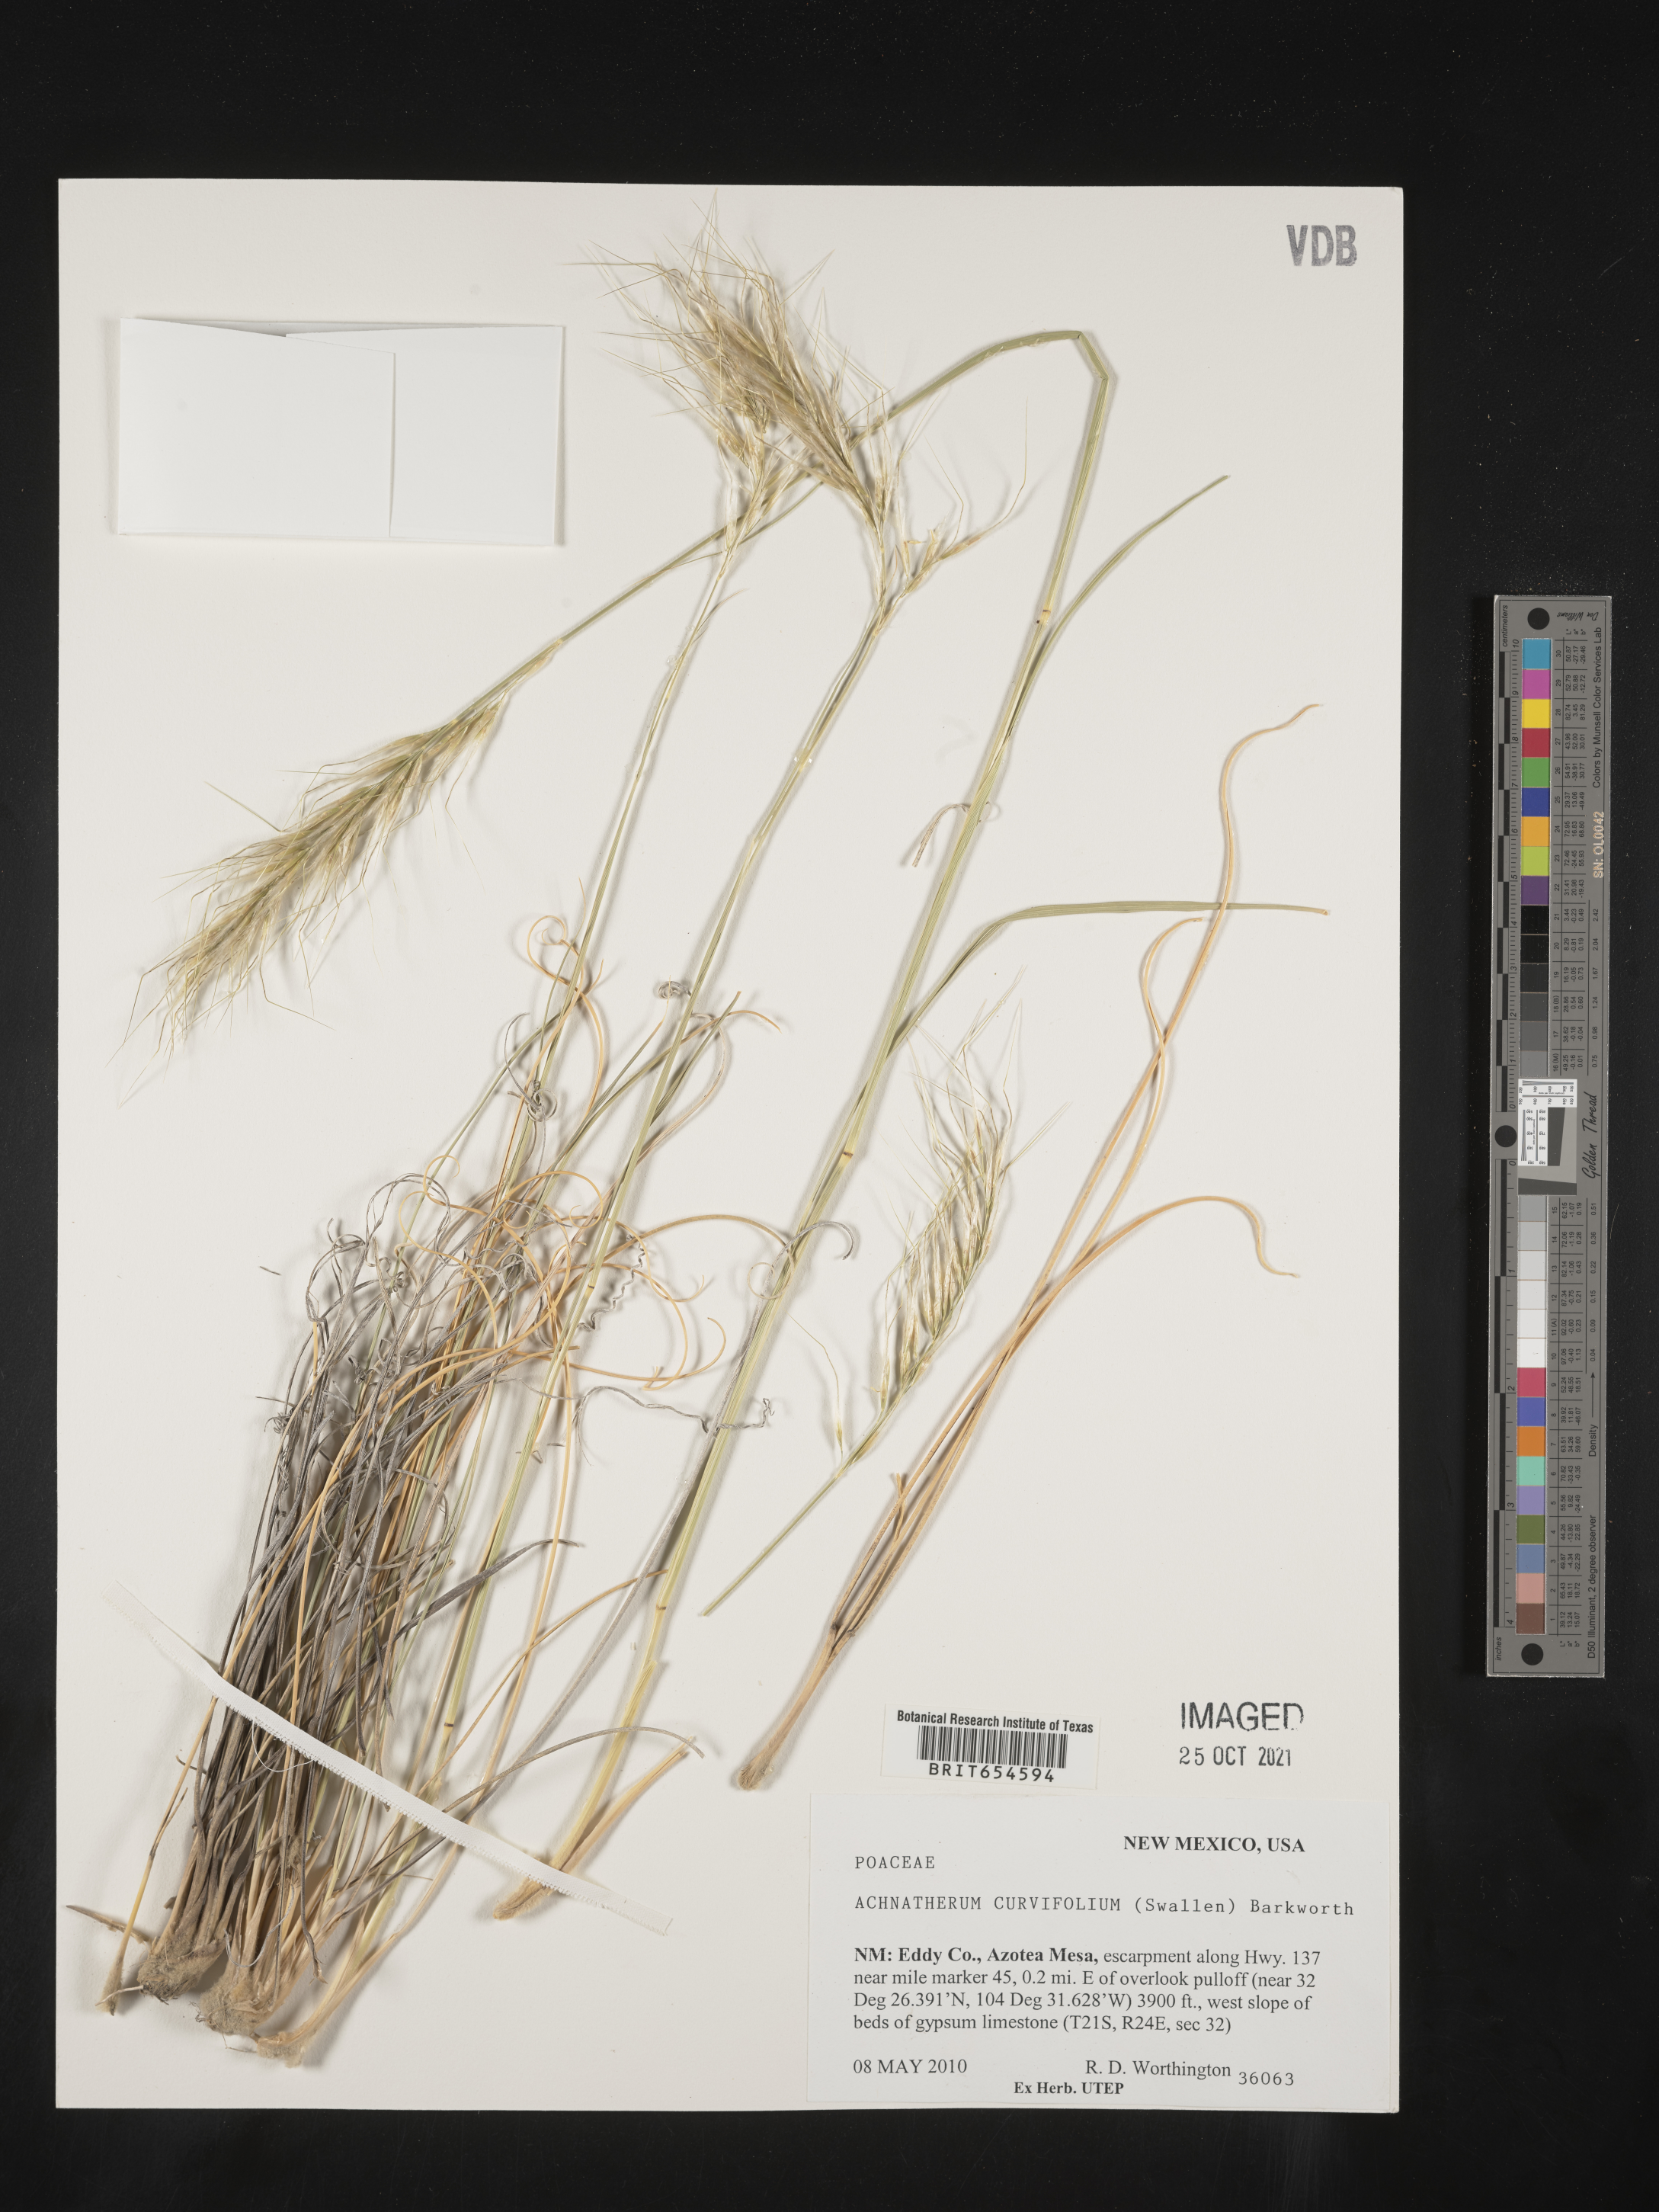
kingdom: Plantae
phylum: Tracheophyta
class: Liliopsida
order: Poales
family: Poaceae
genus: Achnatherum
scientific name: Achnatherum
